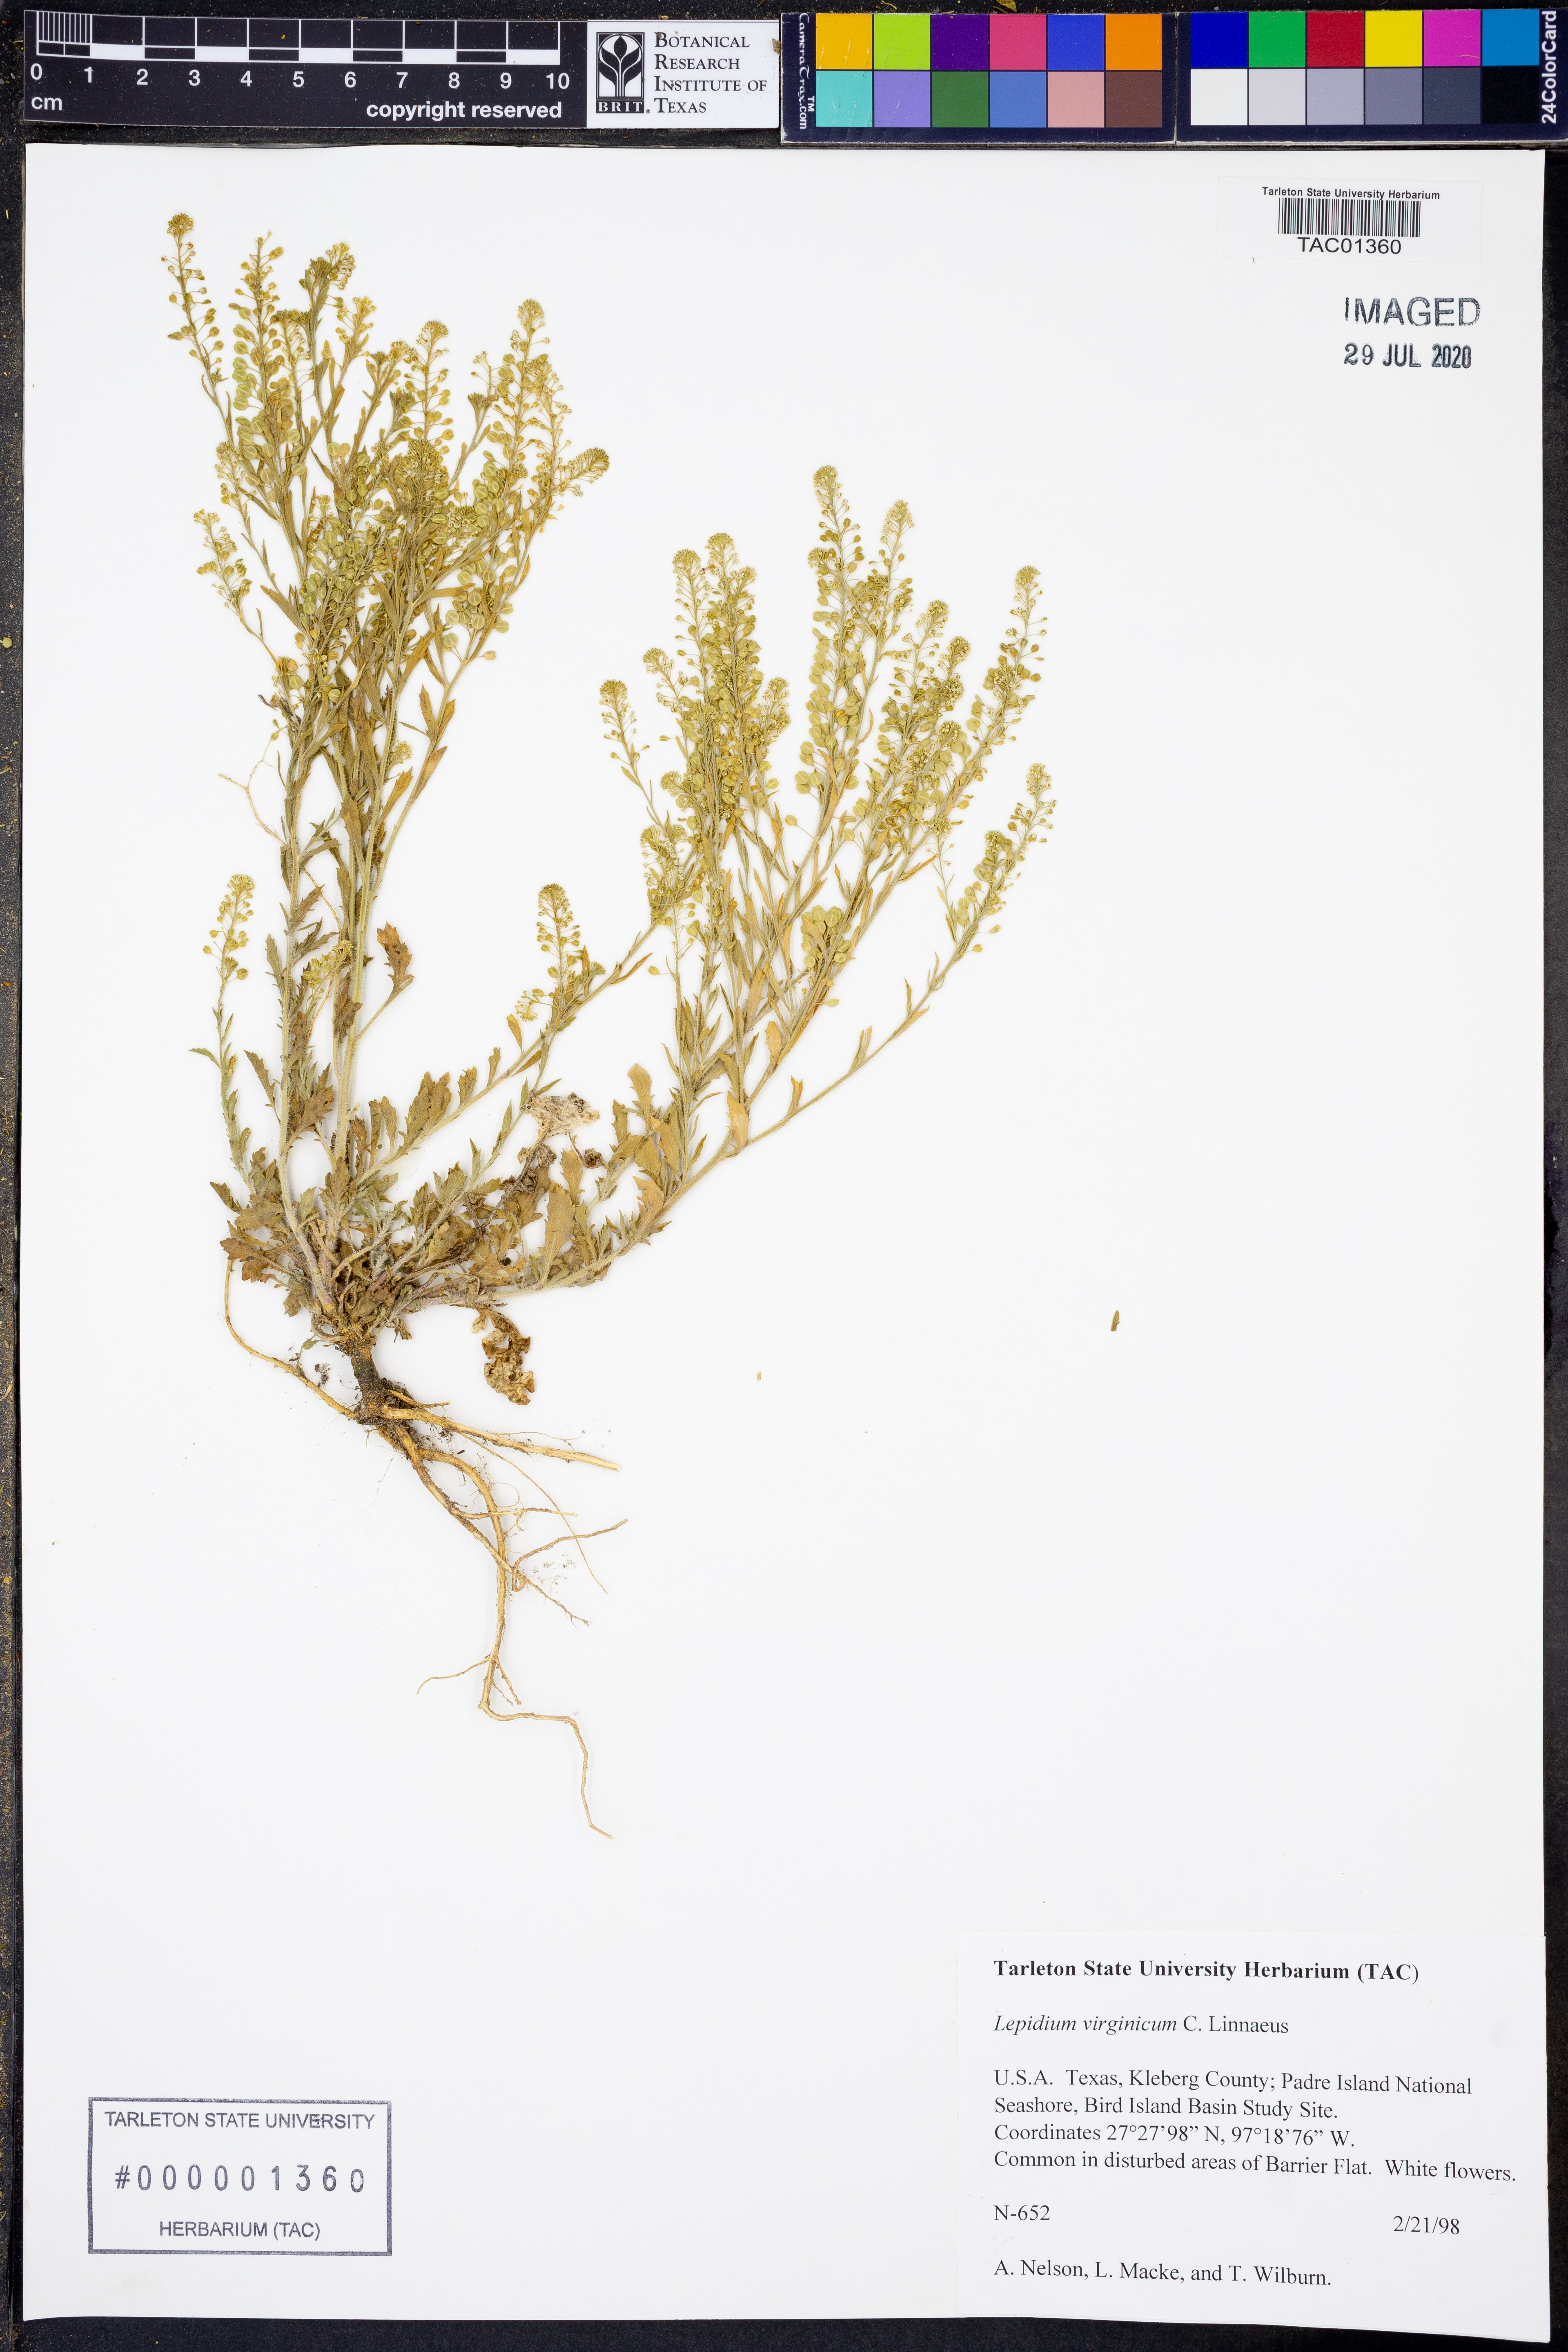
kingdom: Plantae
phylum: Tracheophyta
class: Magnoliopsida
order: Brassicales
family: Brassicaceae
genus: Lepidium
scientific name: Lepidium virginicum
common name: Least pepperwort
